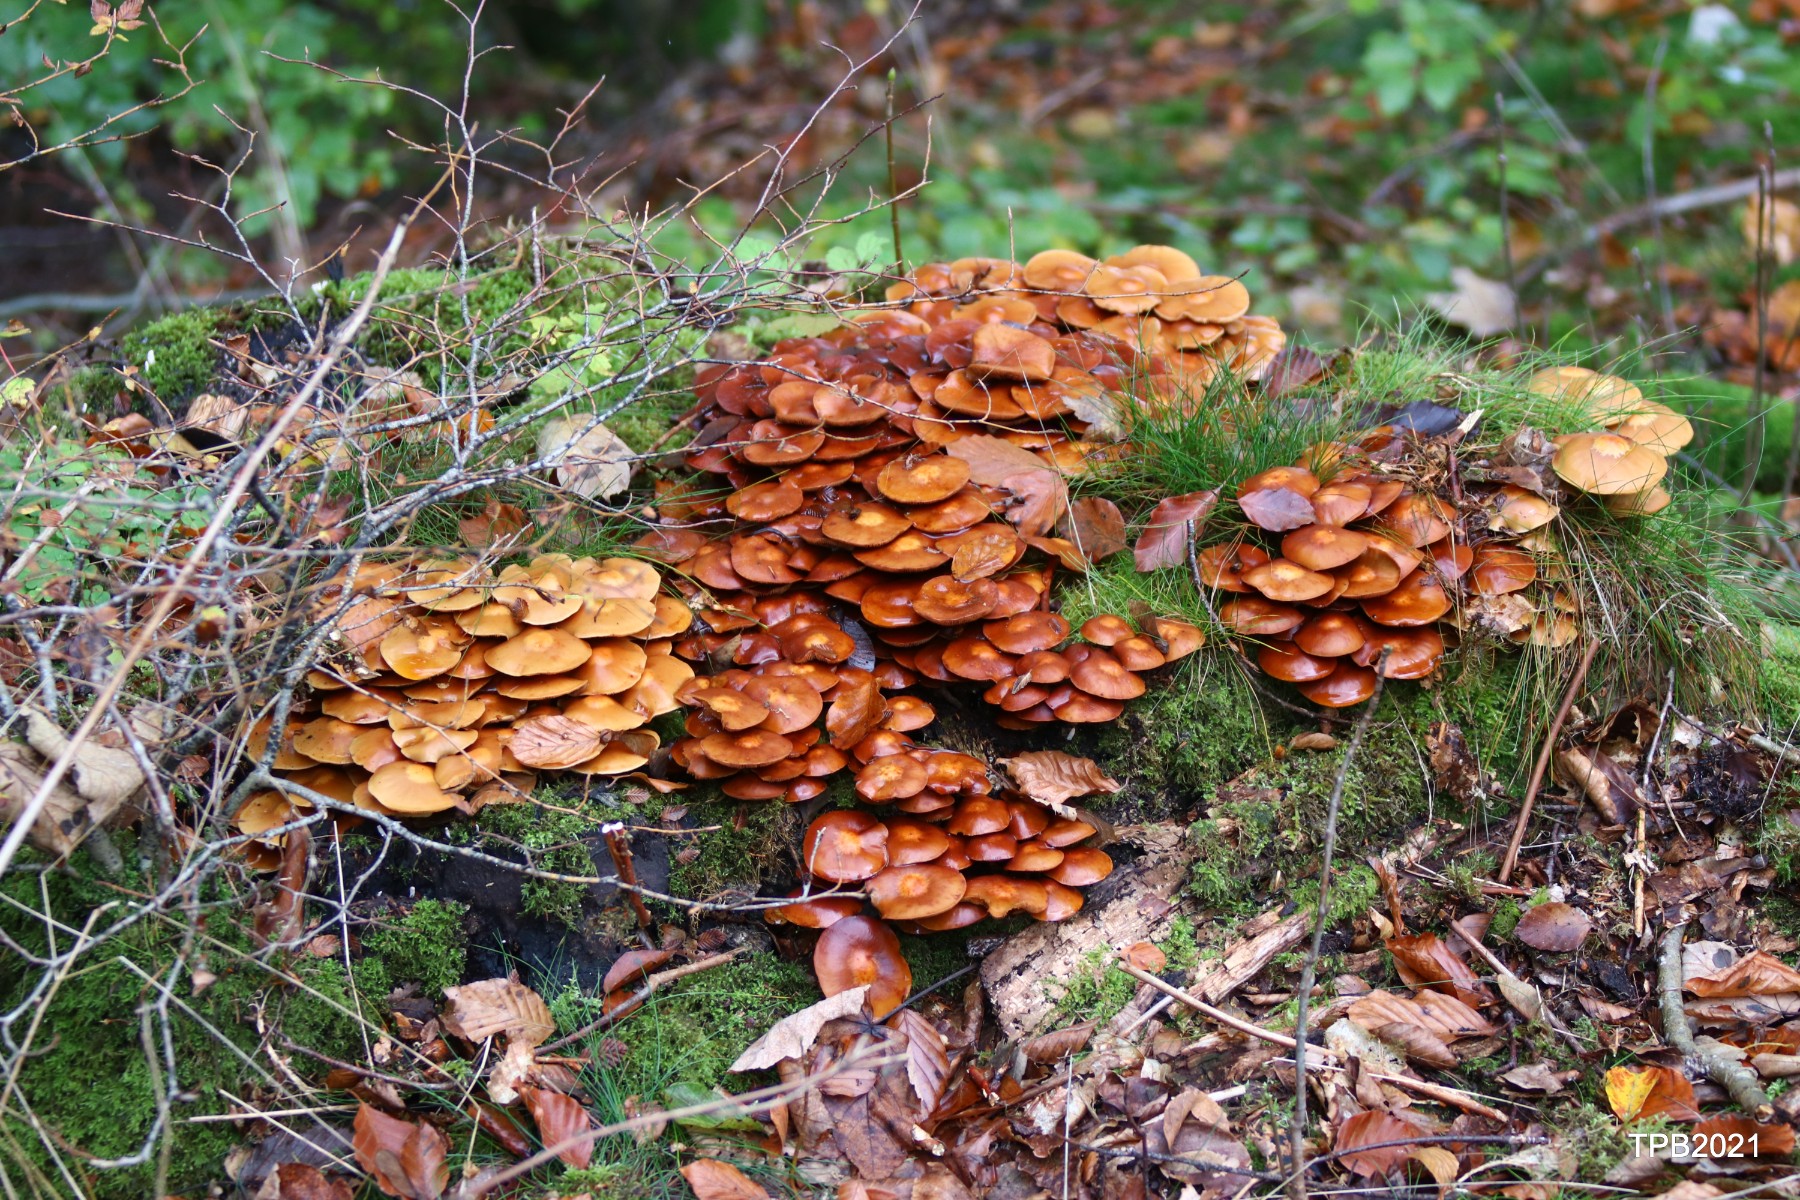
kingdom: Fungi
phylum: Basidiomycota
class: Agaricomycetes
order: Agaricales
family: Strophariaceae
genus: Kuehneromyces
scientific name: Kuehneromyces mutabilis
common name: foranderlig skælhat
